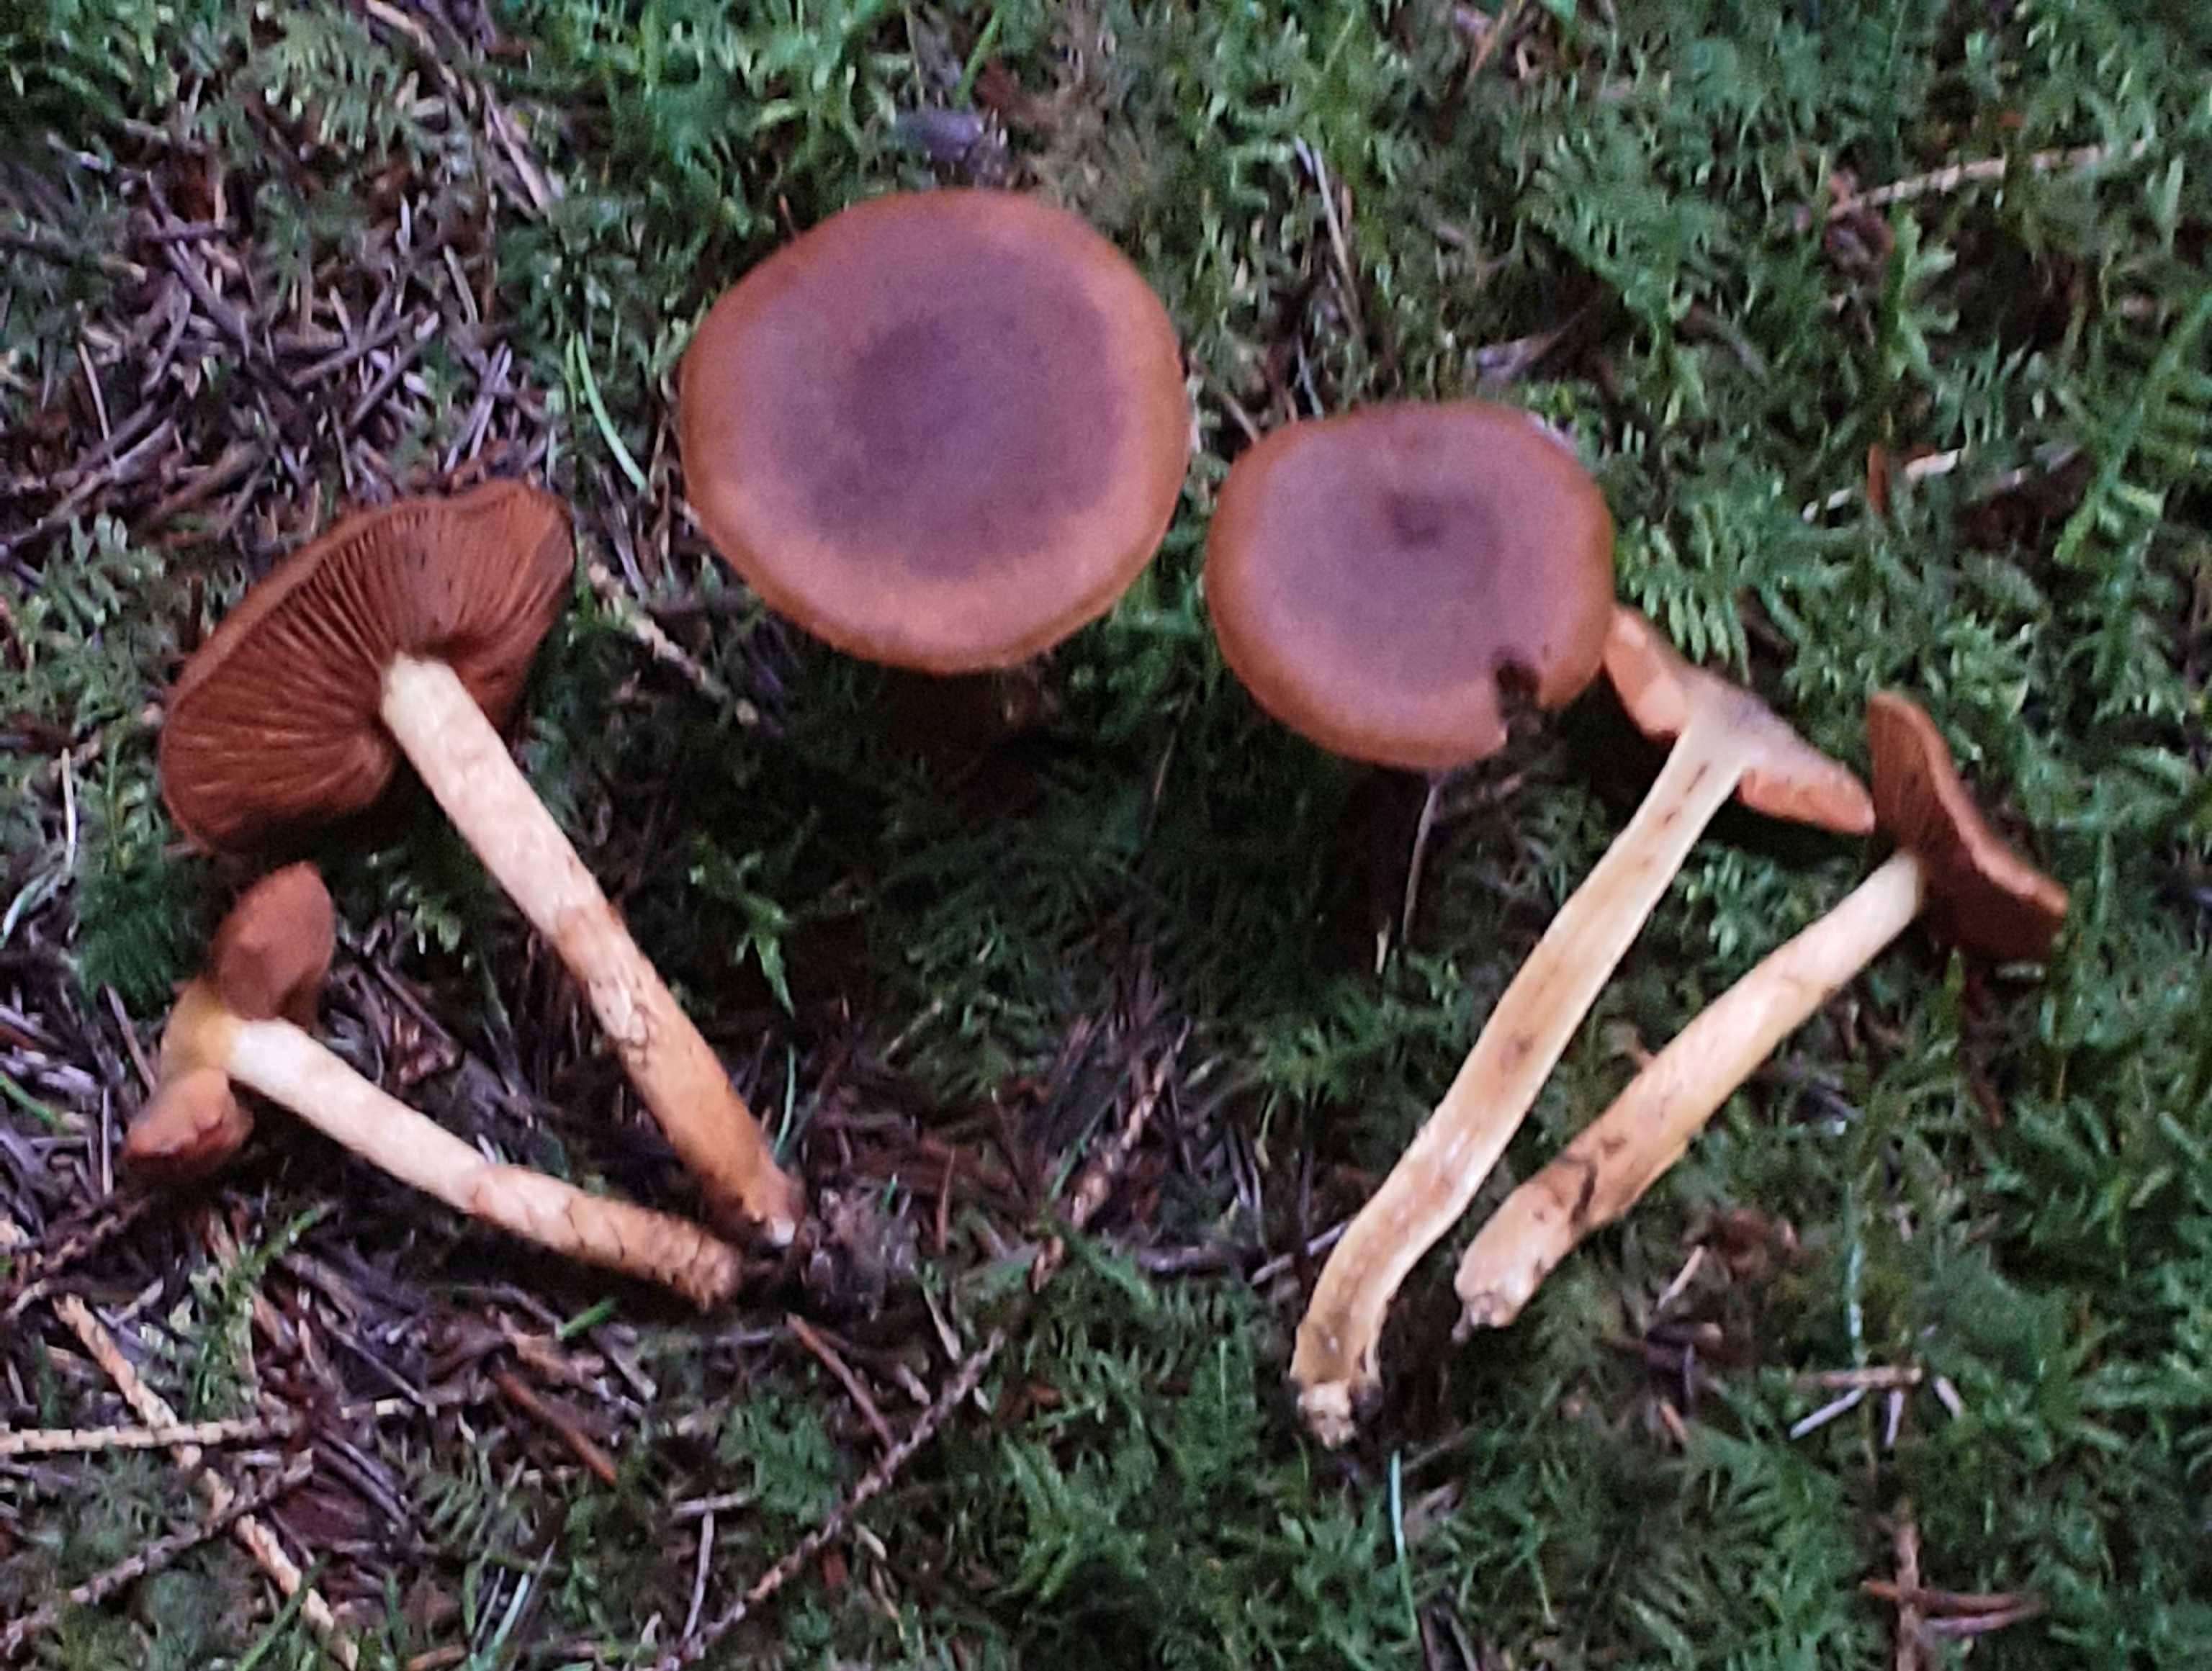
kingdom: Fungi
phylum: Basidiomycota
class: Agaricomycetes
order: Agaricales
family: Cortinariaceae
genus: Cortinarius
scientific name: Cortinarius malicorius
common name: grønkødet slørhat
